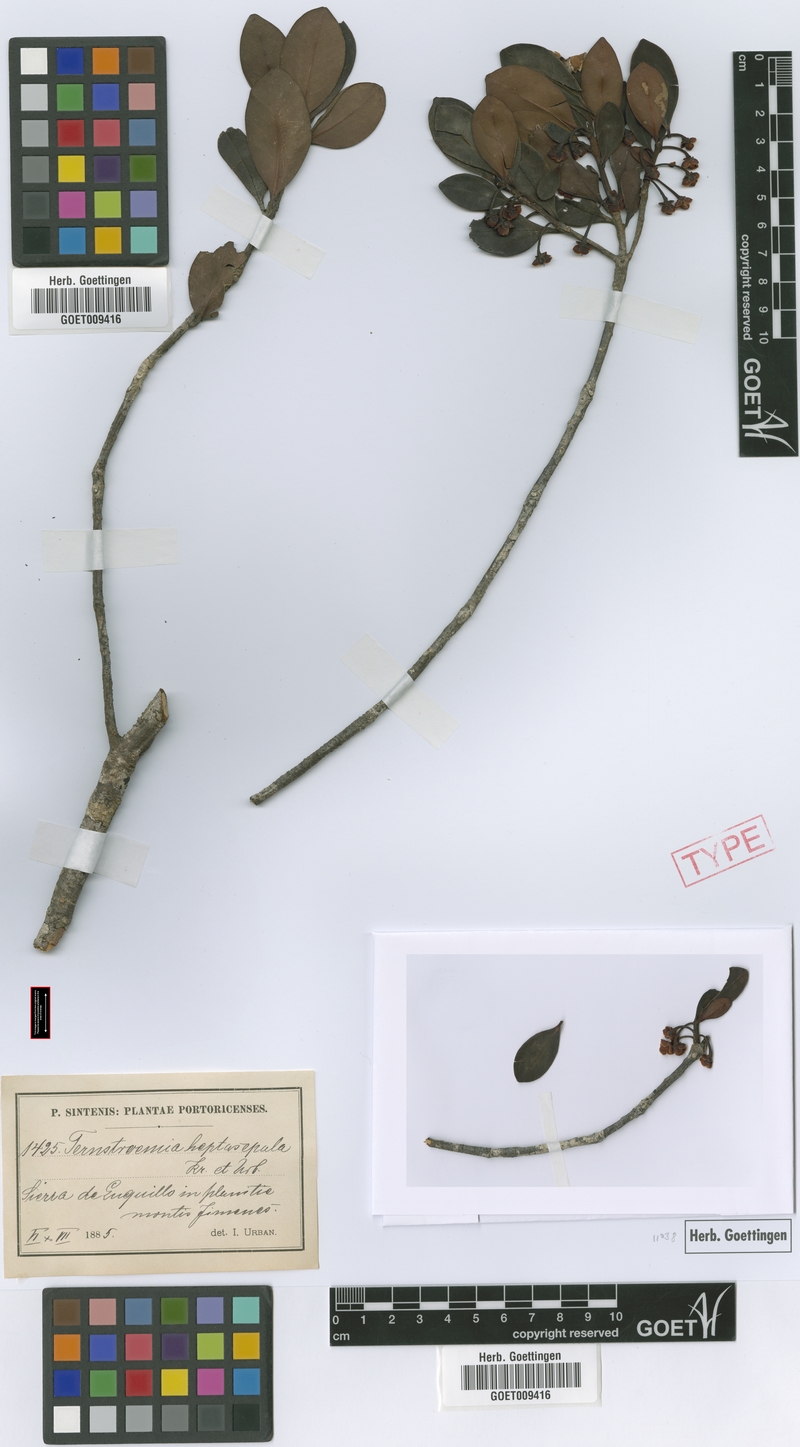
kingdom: Plantae
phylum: Tracheophyta
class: Magnoliopsida
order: Ericales
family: Pentaphylacaceae
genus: Ternstroemia
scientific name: Ternstroemia heptasepala
